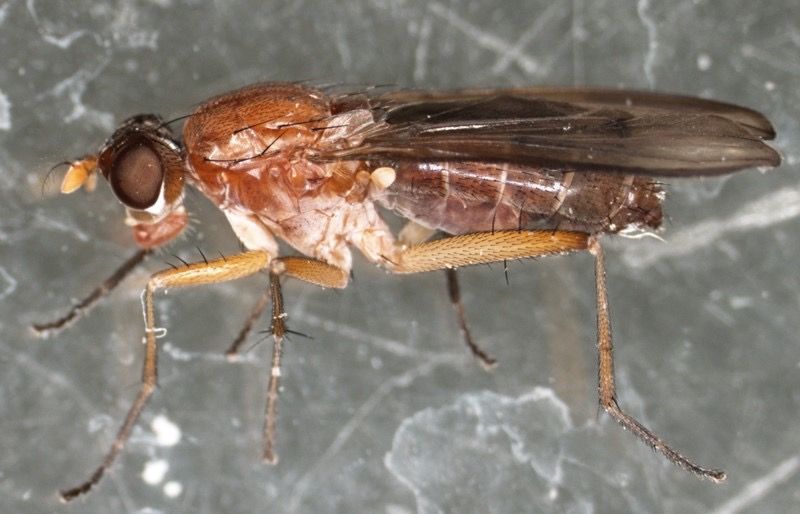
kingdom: Animalia
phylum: Arthropoda
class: Insecta
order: Diptera
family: Sciomyzidae
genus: Tetanocera
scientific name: Tetanocera hyalipennis
